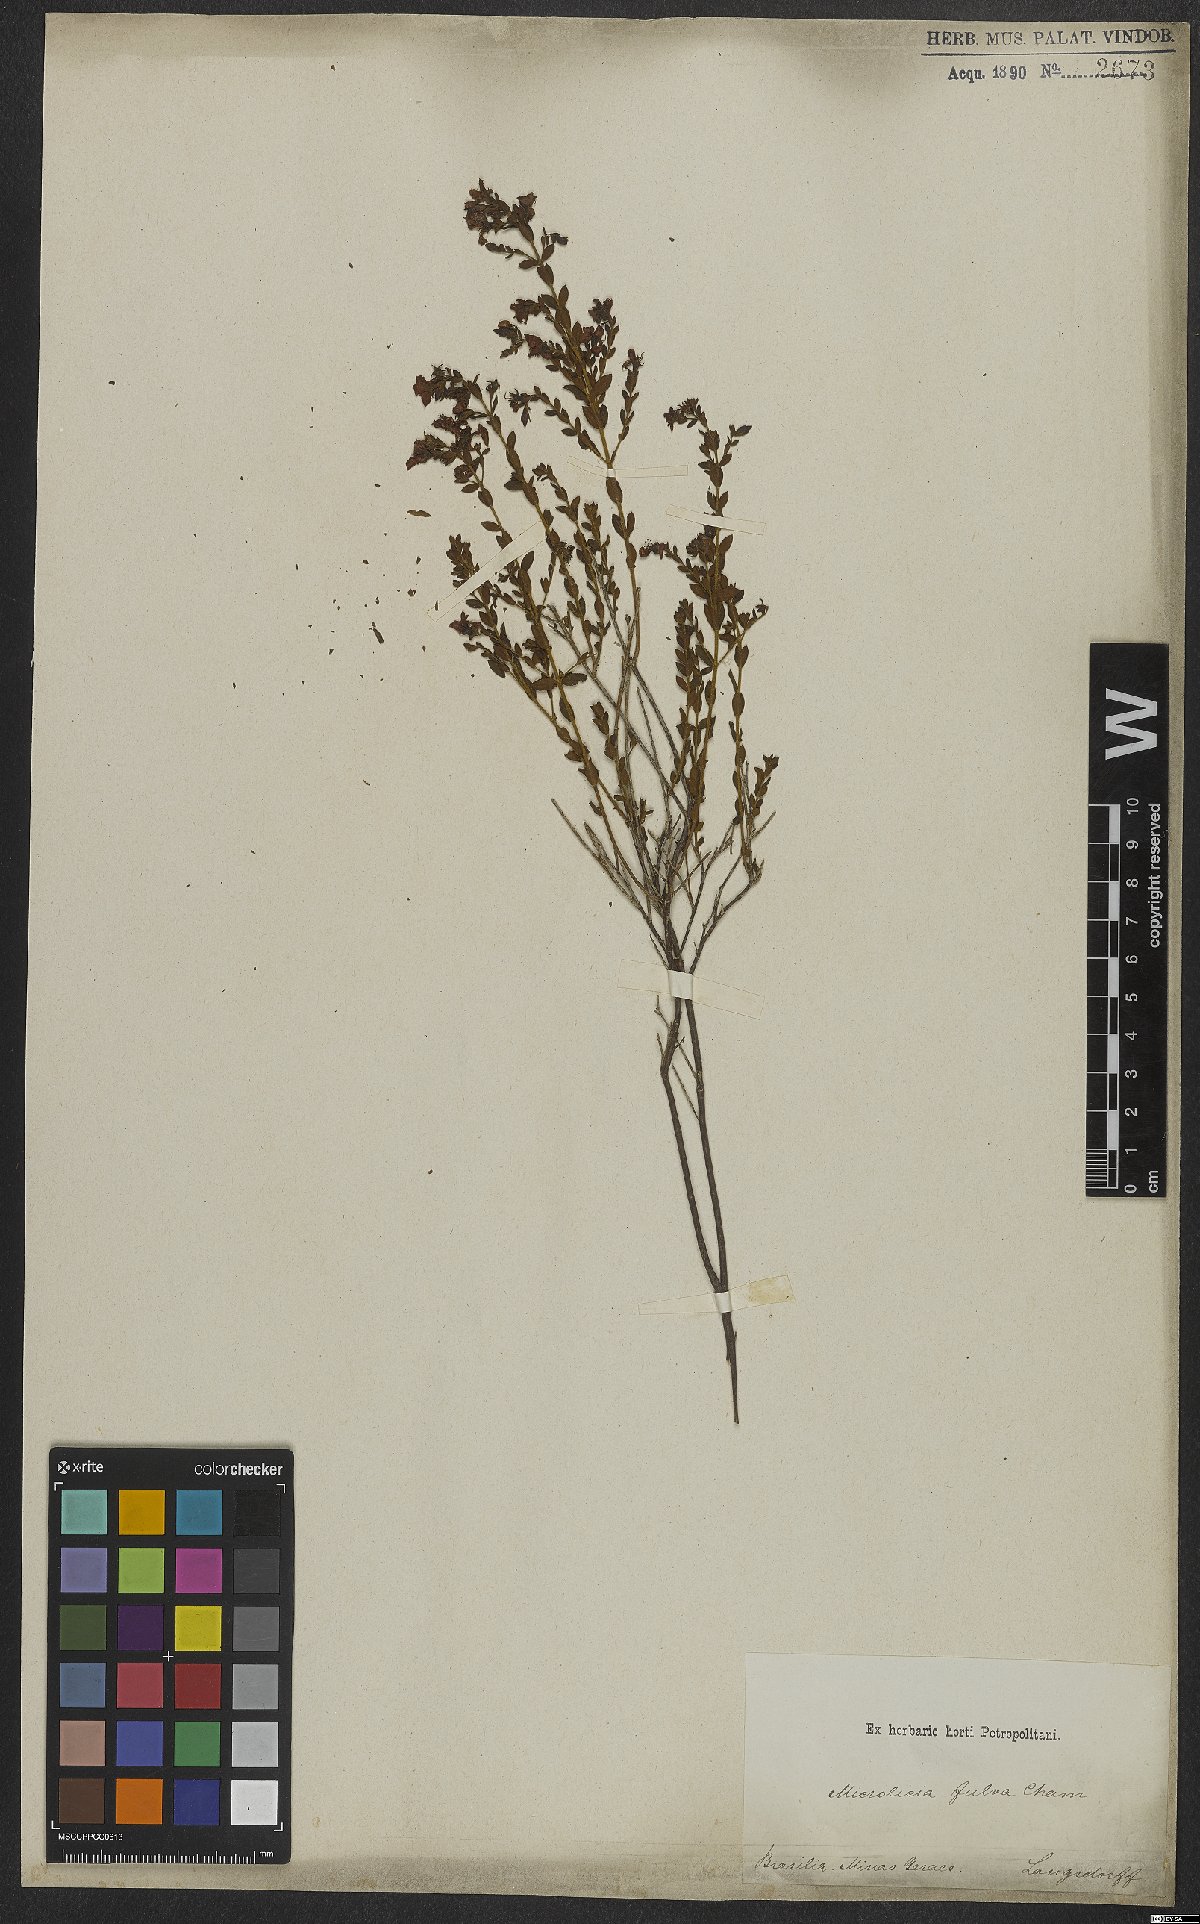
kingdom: Plantae
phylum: Tracheophyta
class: Magnoliopsida
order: Myrtales
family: Melastomataceae
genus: Microlicia
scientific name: Microlicia fulva
